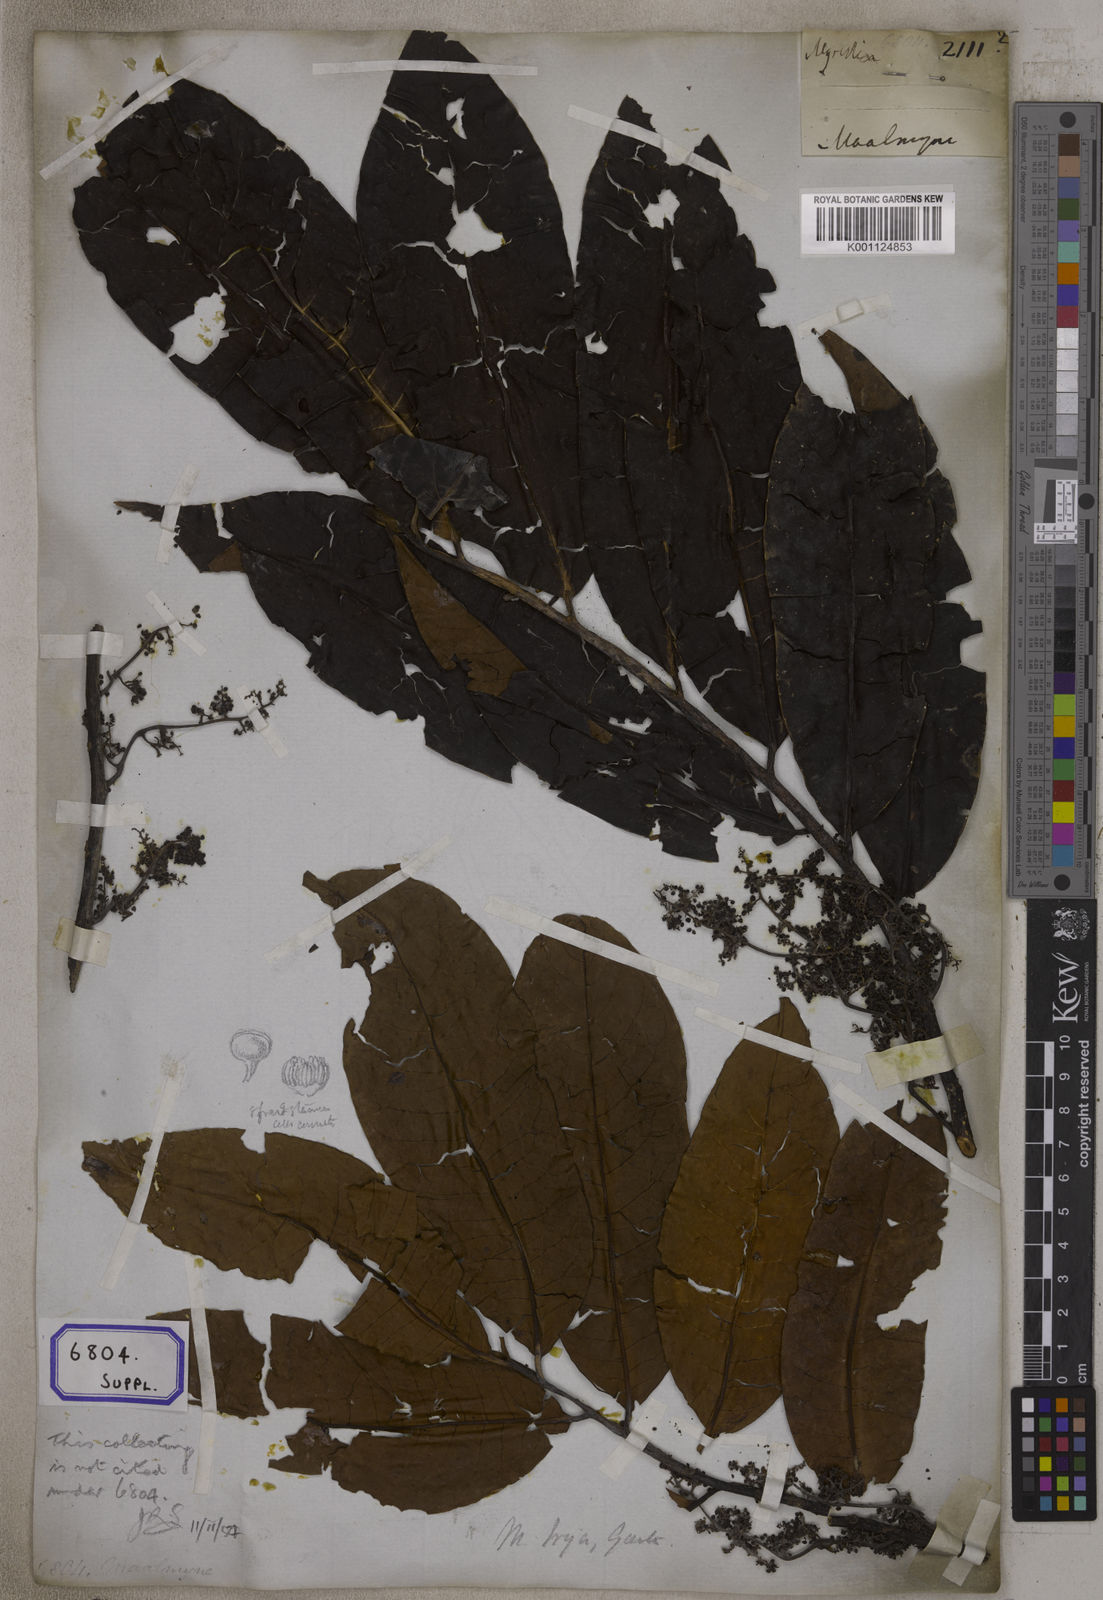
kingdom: Plantae
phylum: Tracheophyta
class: Magnoliopsida
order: Magnoliales
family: Myristicaceae
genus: Myristica
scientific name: Myristica
